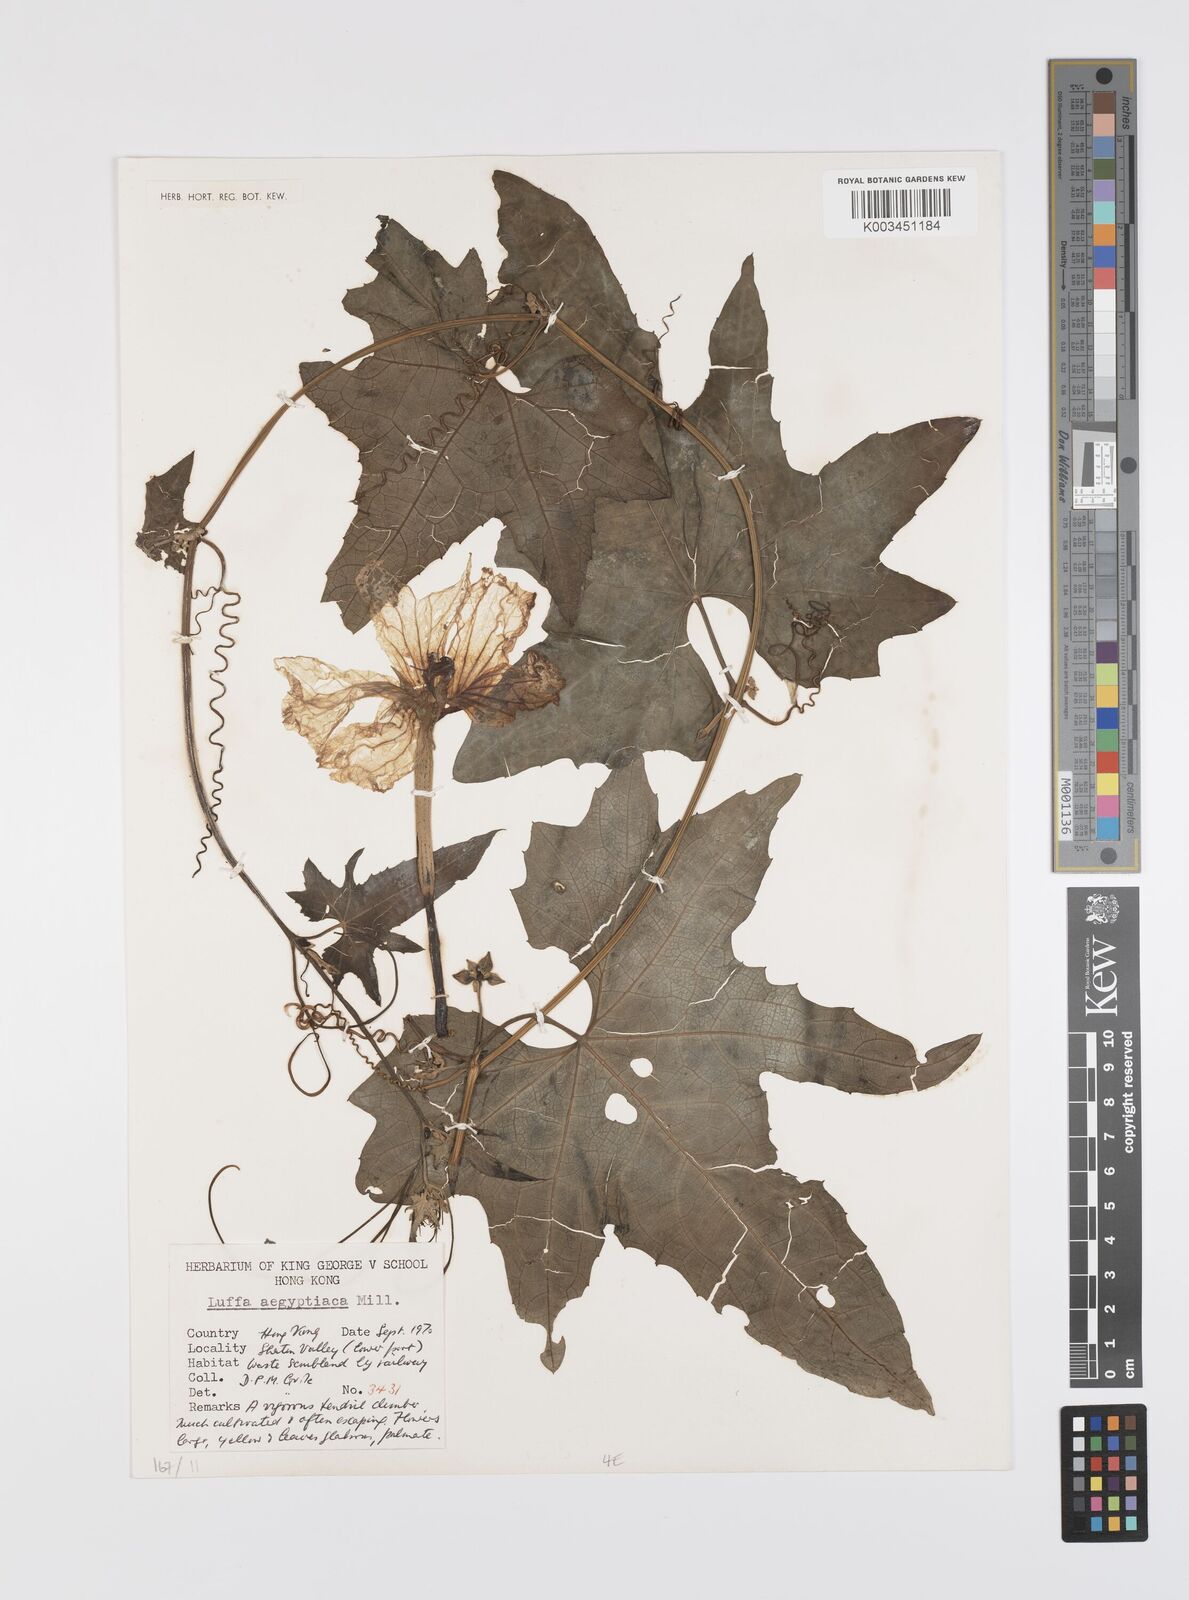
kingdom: Plantae
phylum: Tracheophyta
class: Magnoliopsida
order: Cucurbitales
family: Cucurbitaceae
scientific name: Cucurbitaceae
